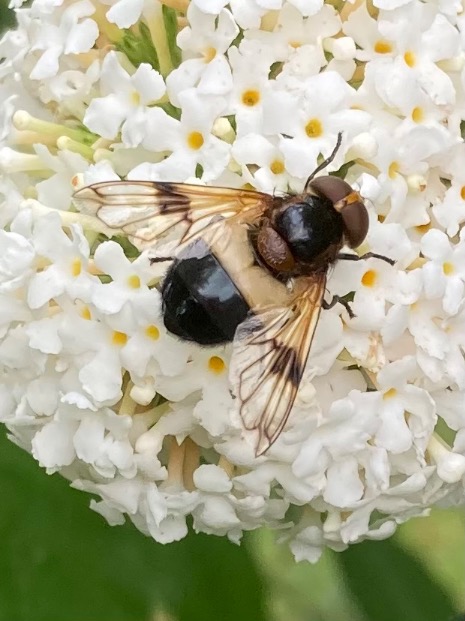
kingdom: Animalia
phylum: Arthropoda
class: Insecta
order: Diptera
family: Syrphidae
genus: Volucella
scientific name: Volucella pellucens
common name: Hvidbåndet humlesvirreflue
